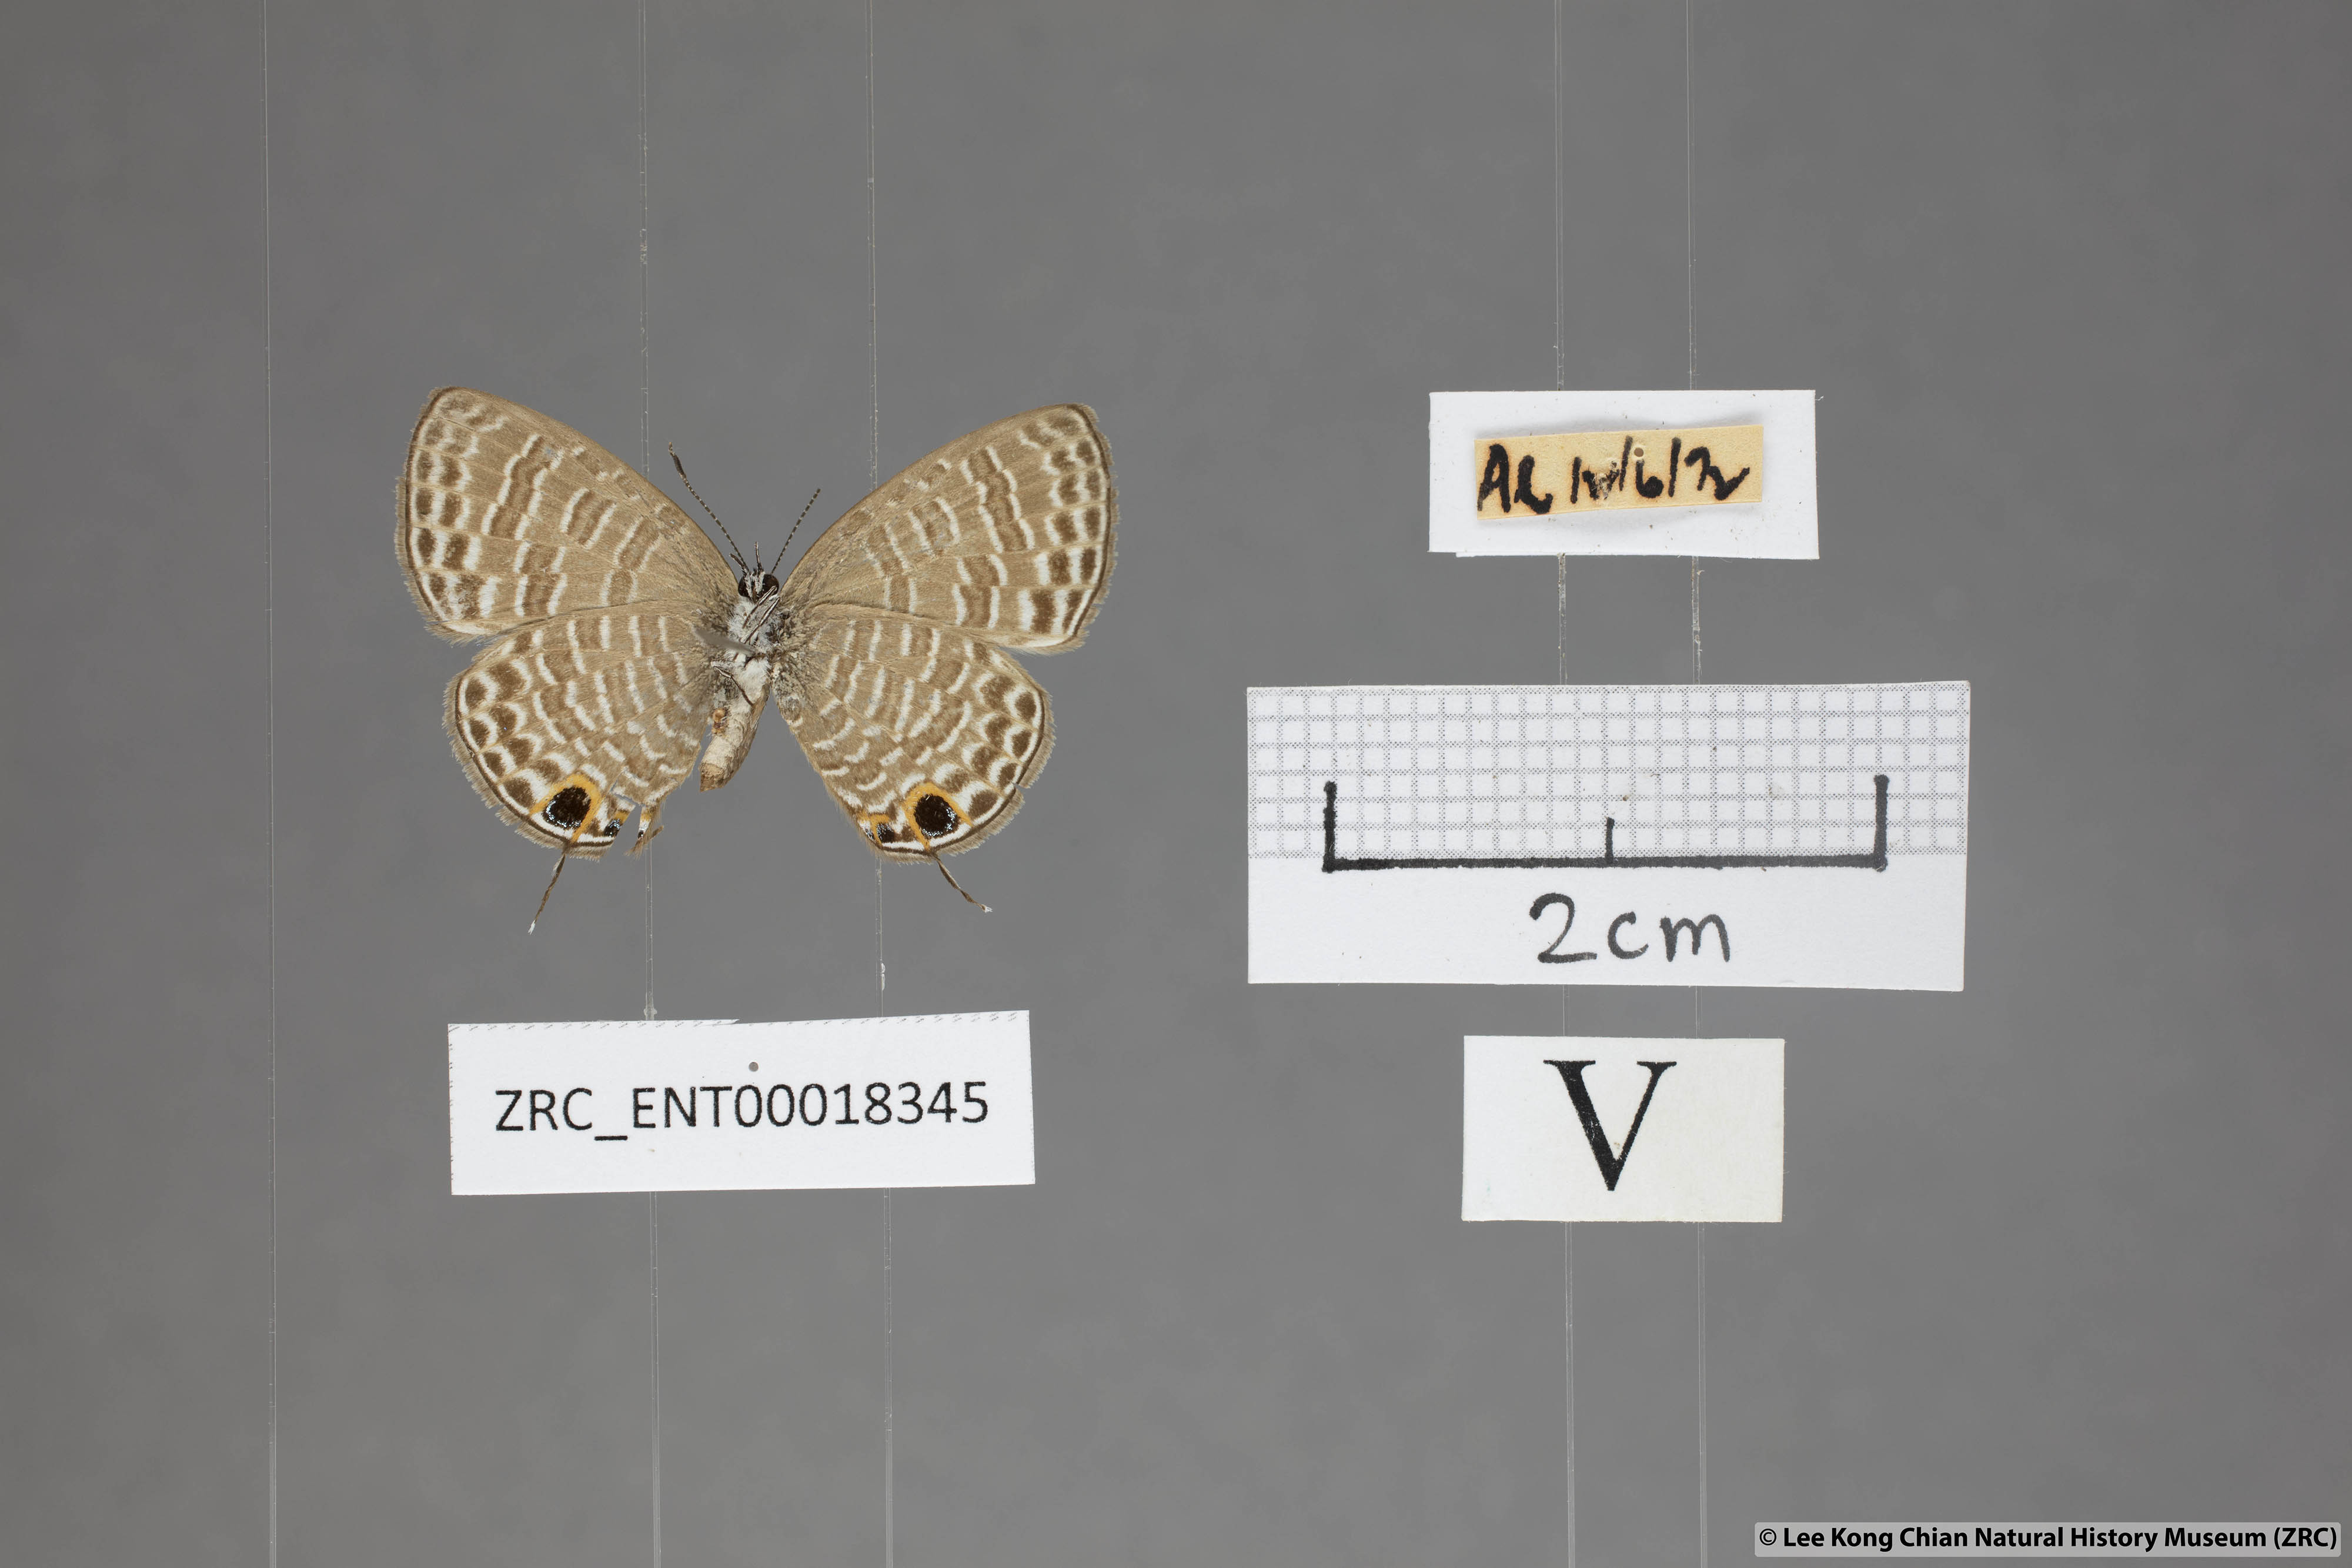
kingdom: Animalia
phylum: Arthropoda
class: Insecta
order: Lepidoptera
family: Lycaenidae
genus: Nacaduba
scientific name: Nacaduba calauria
